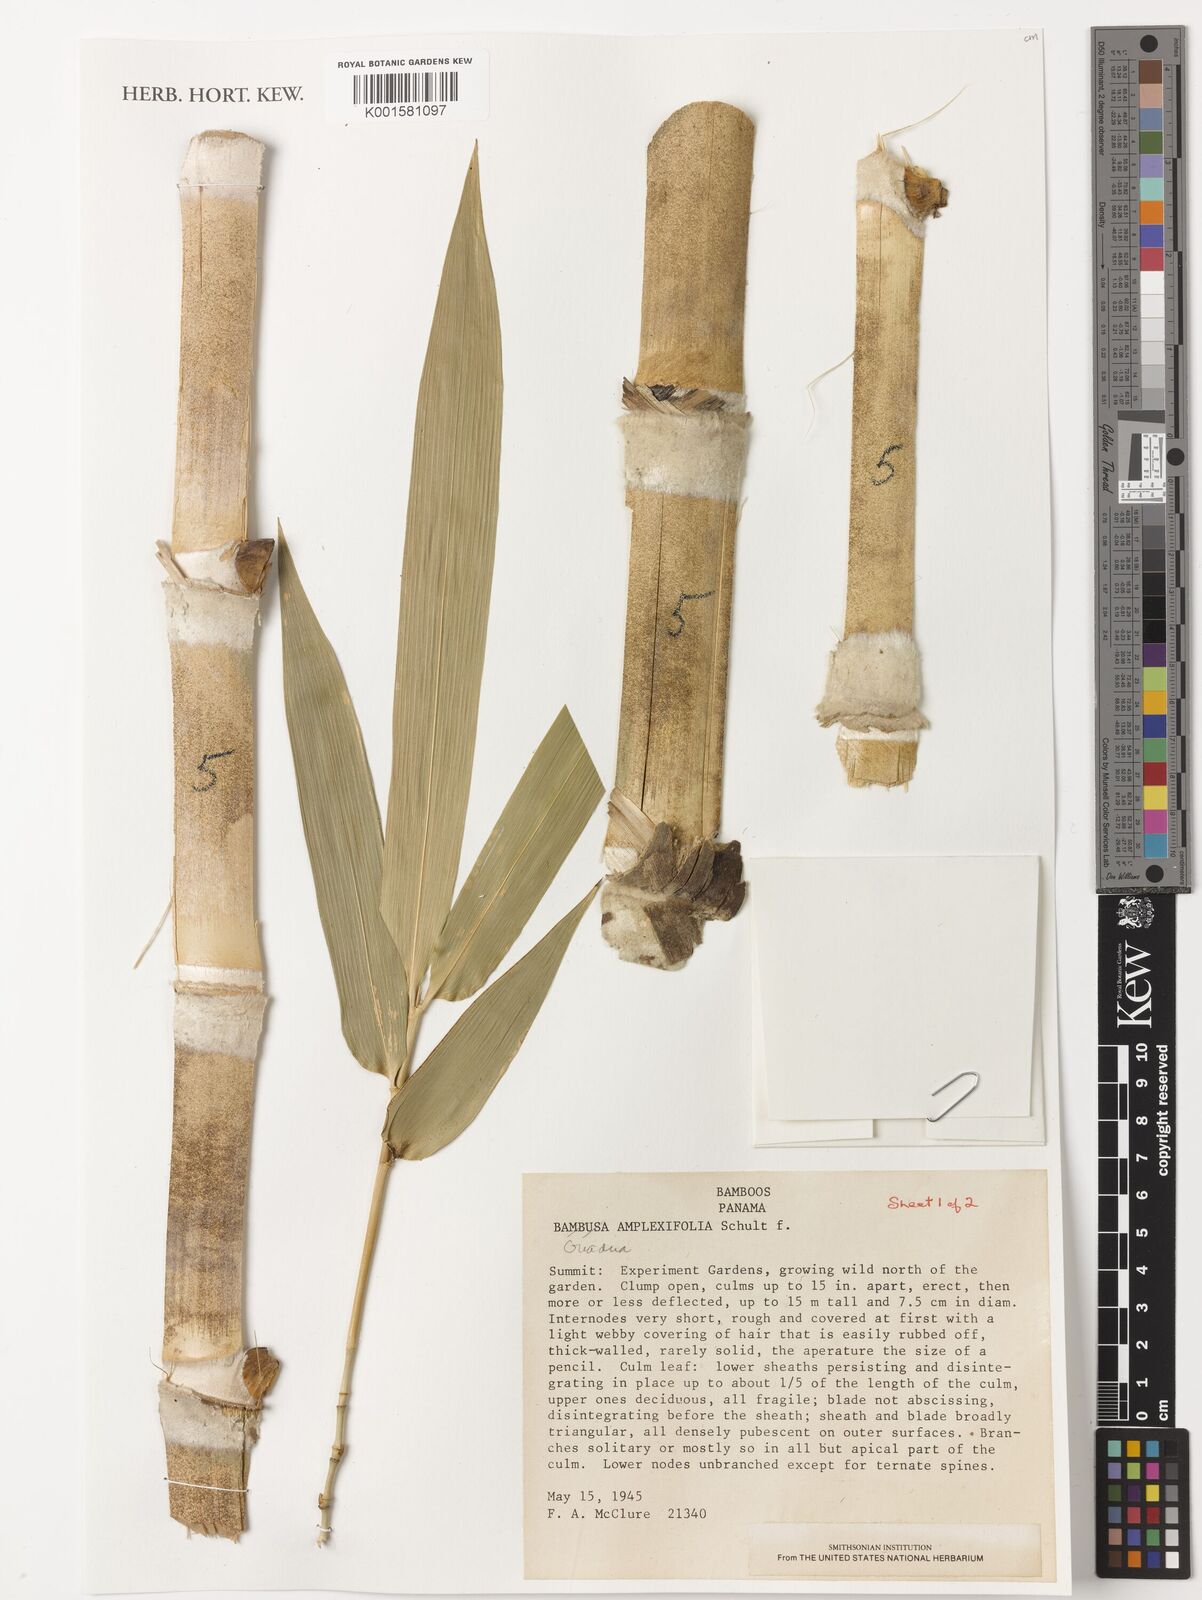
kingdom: Plantae
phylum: Tracheophyta
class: Liliopsida
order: Poales
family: Poaceae
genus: Guadua
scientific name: Guadua amplexifolia
